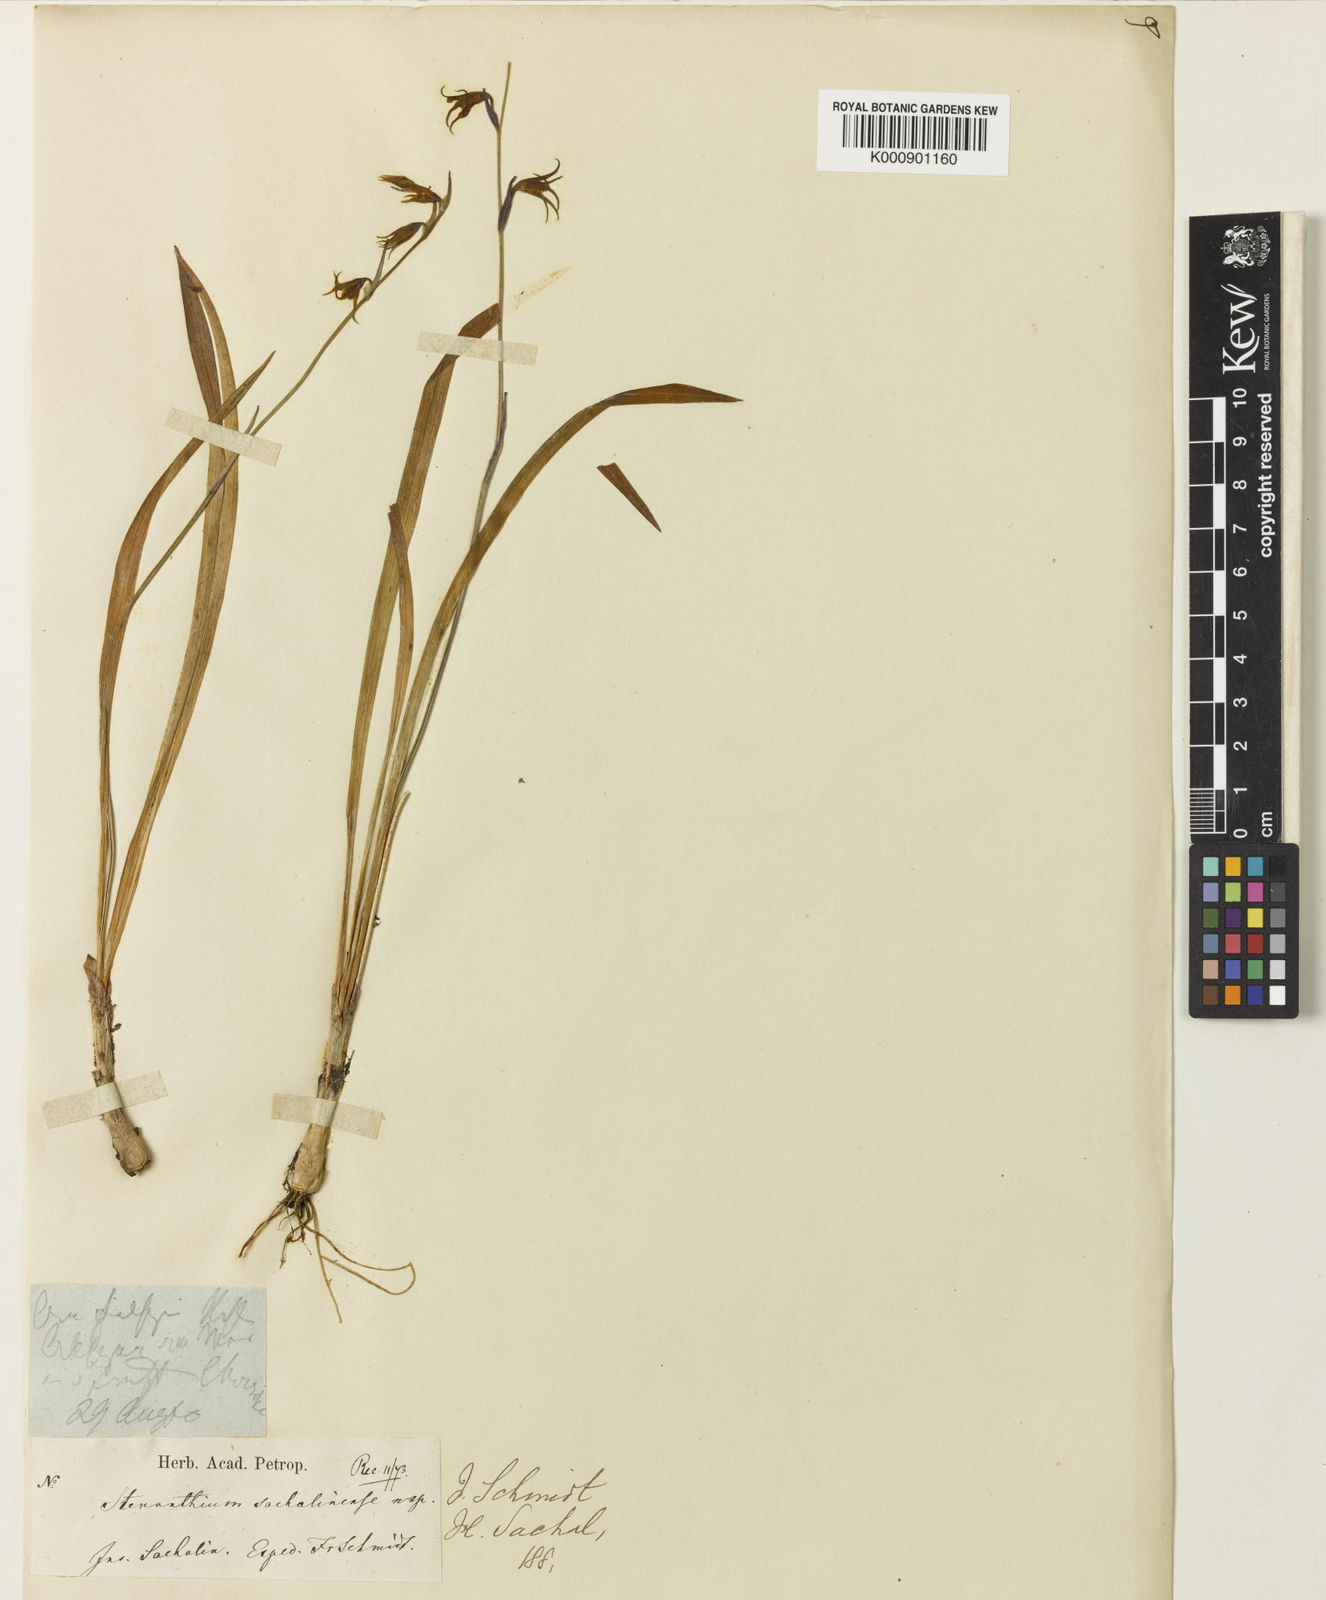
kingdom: Plantae
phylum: Tracheophyta
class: Liliopsida
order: Liliales
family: Melanthiaceae
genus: Anticlea
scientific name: Anticlea sachalinensis
